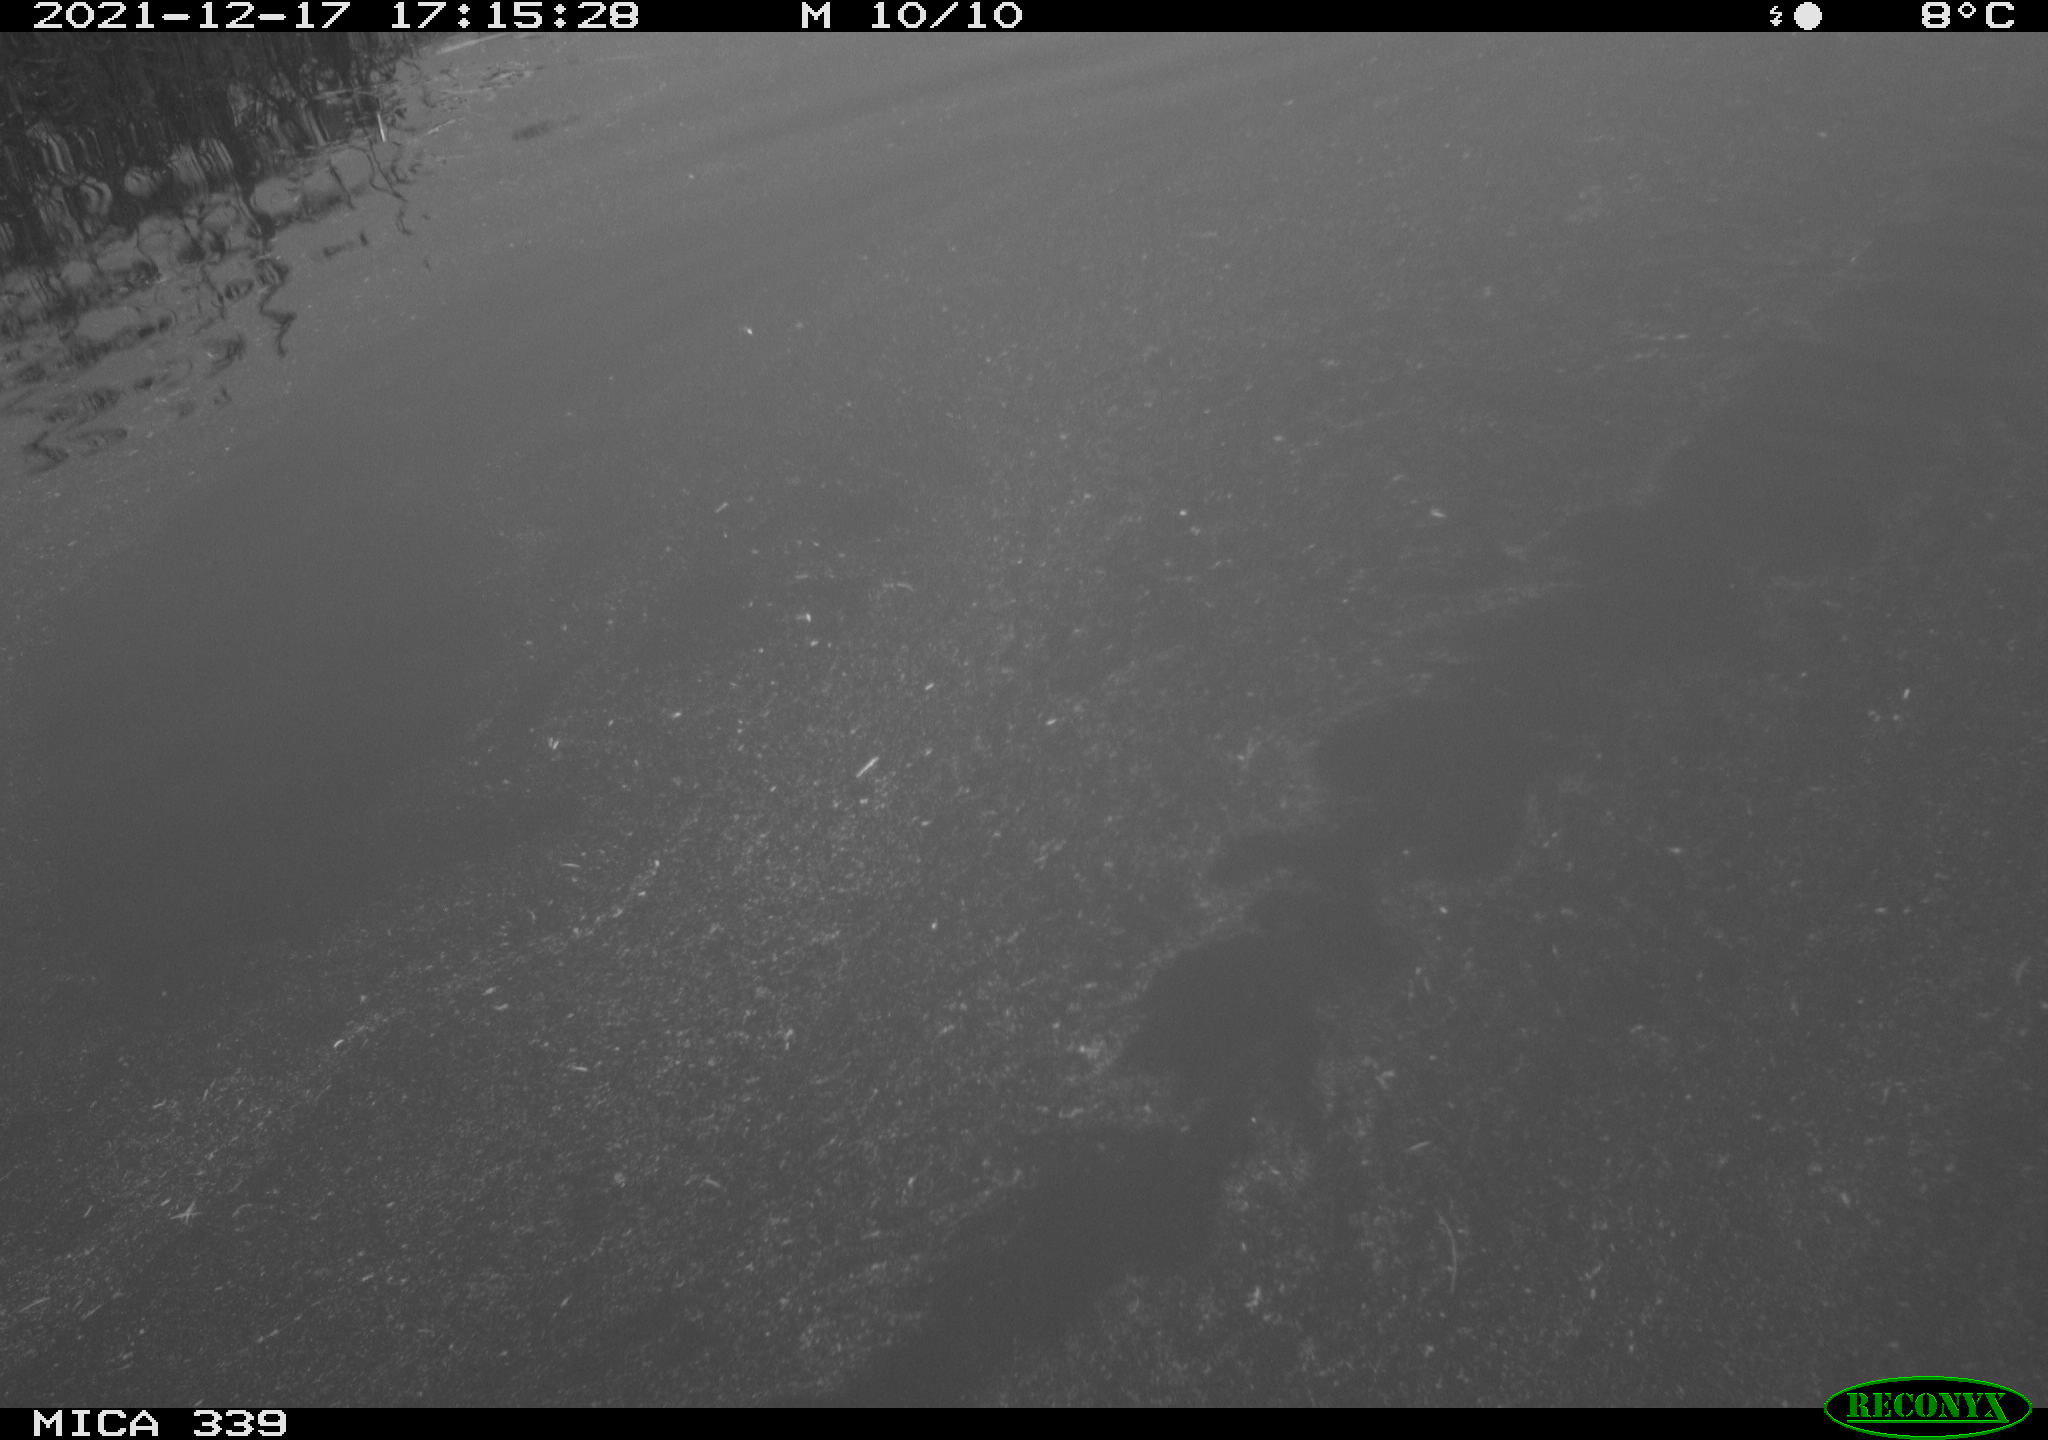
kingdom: Animalia
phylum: Chordata
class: Aves
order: Gruiformes
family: Rallidae
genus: Gallinula
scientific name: Gallinula chloropus
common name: Common moorhen
